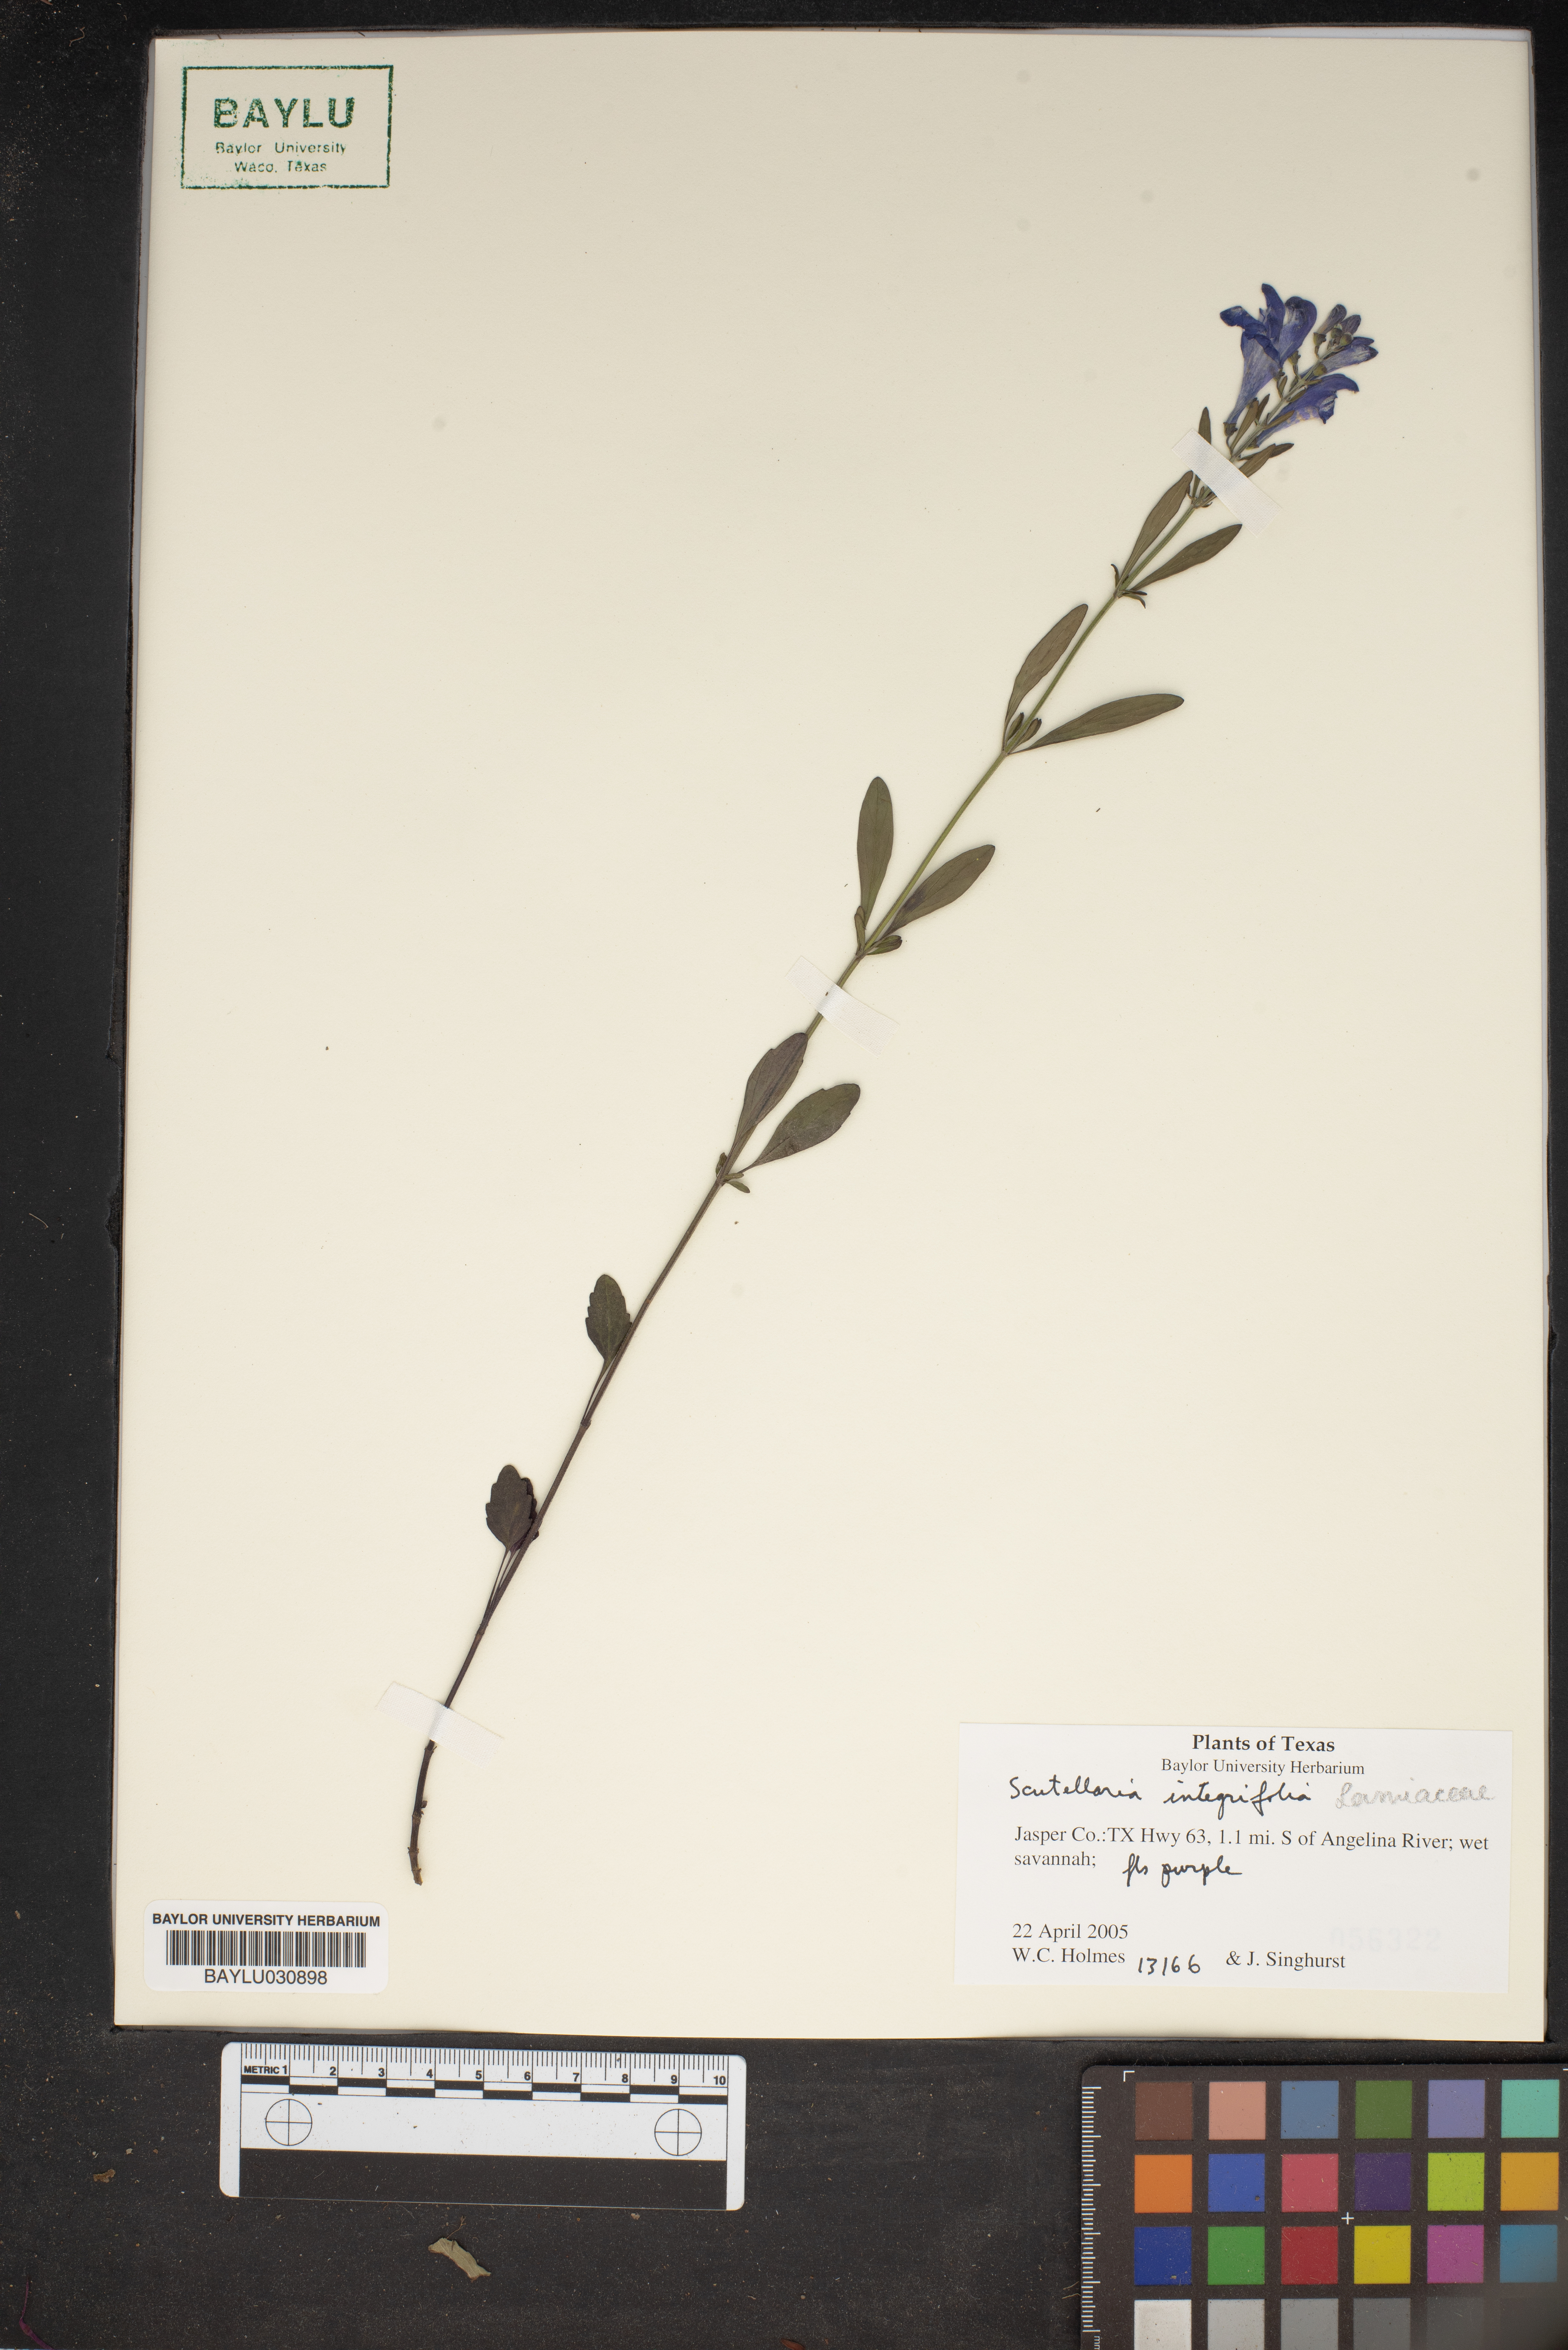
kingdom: Plantae
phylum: Tracheophyta
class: Magnoliopsida
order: Lamiales
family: Lamiaceae
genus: Scutellaria
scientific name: Scutellaria integrifolia
